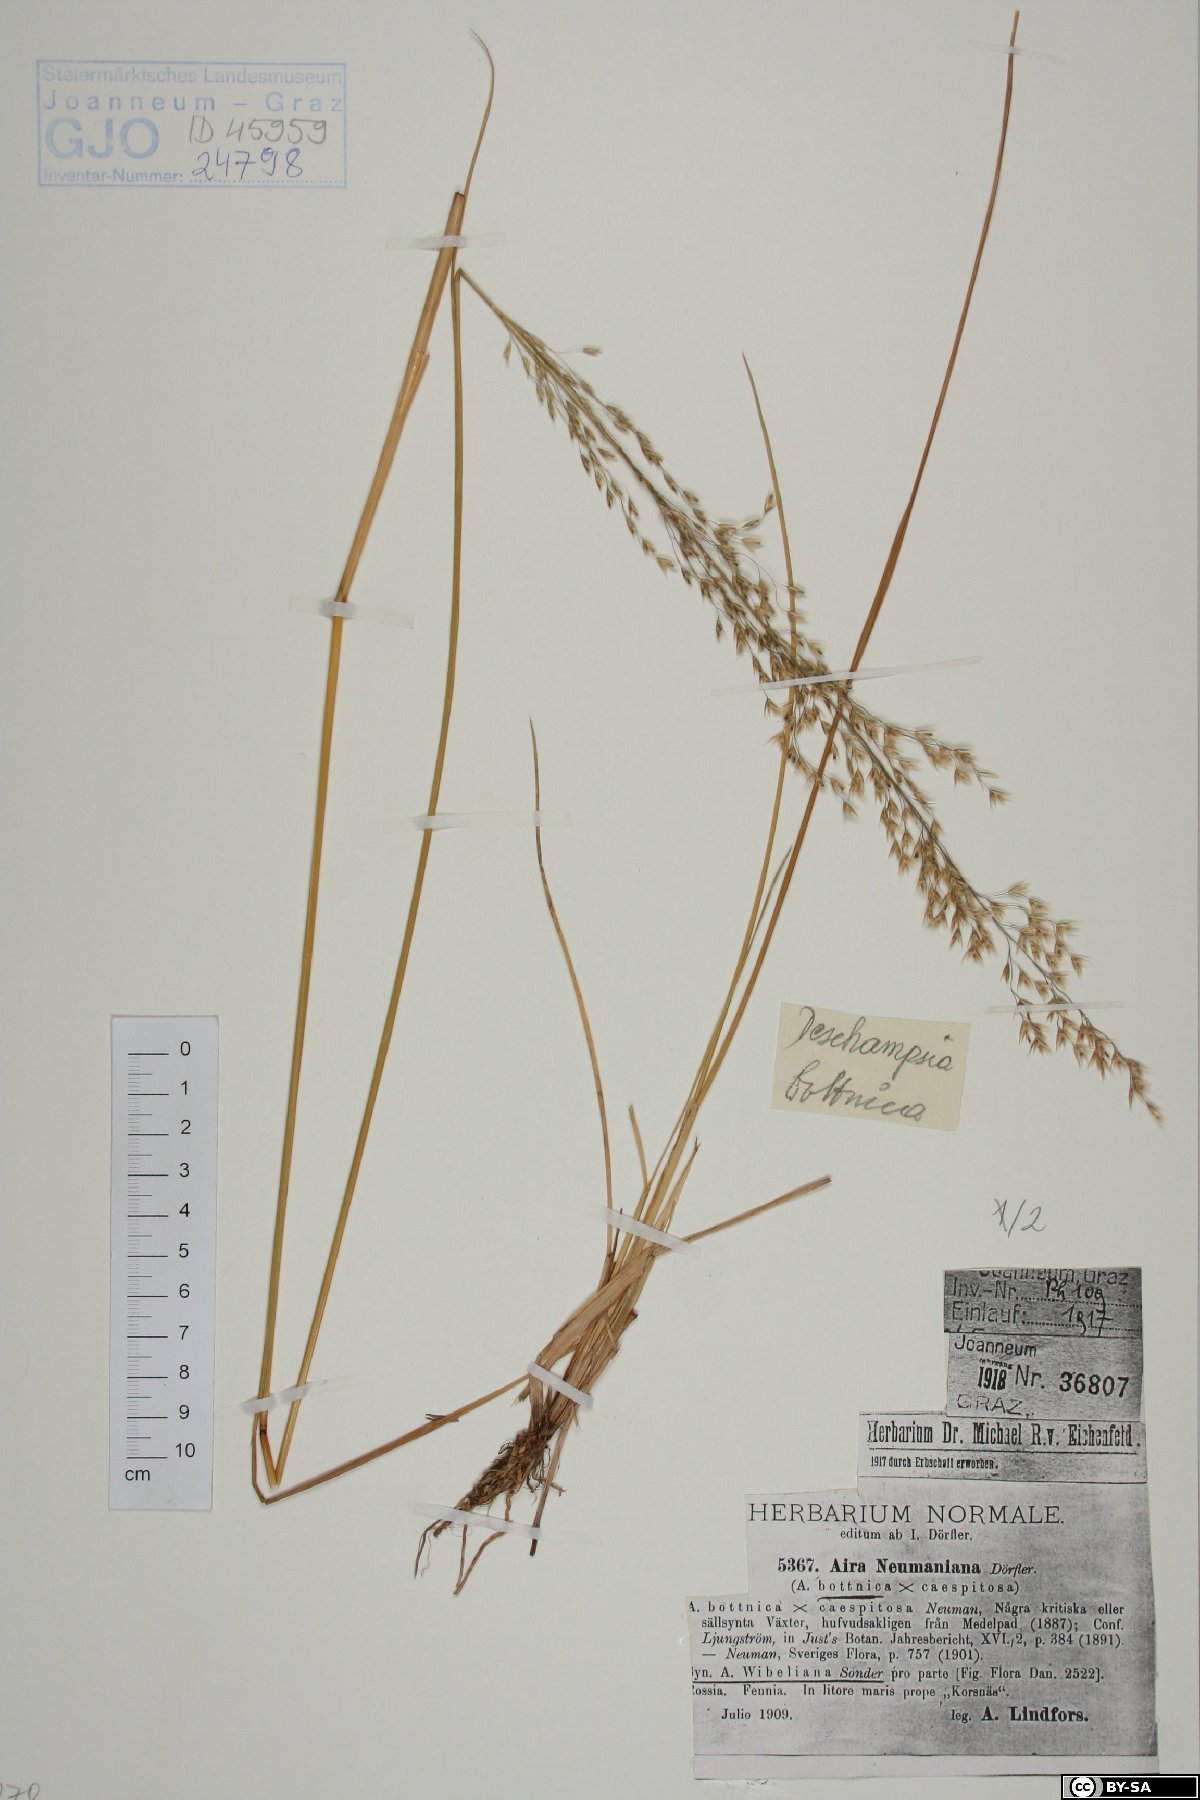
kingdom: Plantae
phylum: Tracheophyta
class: Liliopsida
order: Poales
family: Poaceae
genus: Deschampsia
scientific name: Deschampsia cespitosa
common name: Tufted hair-grass
